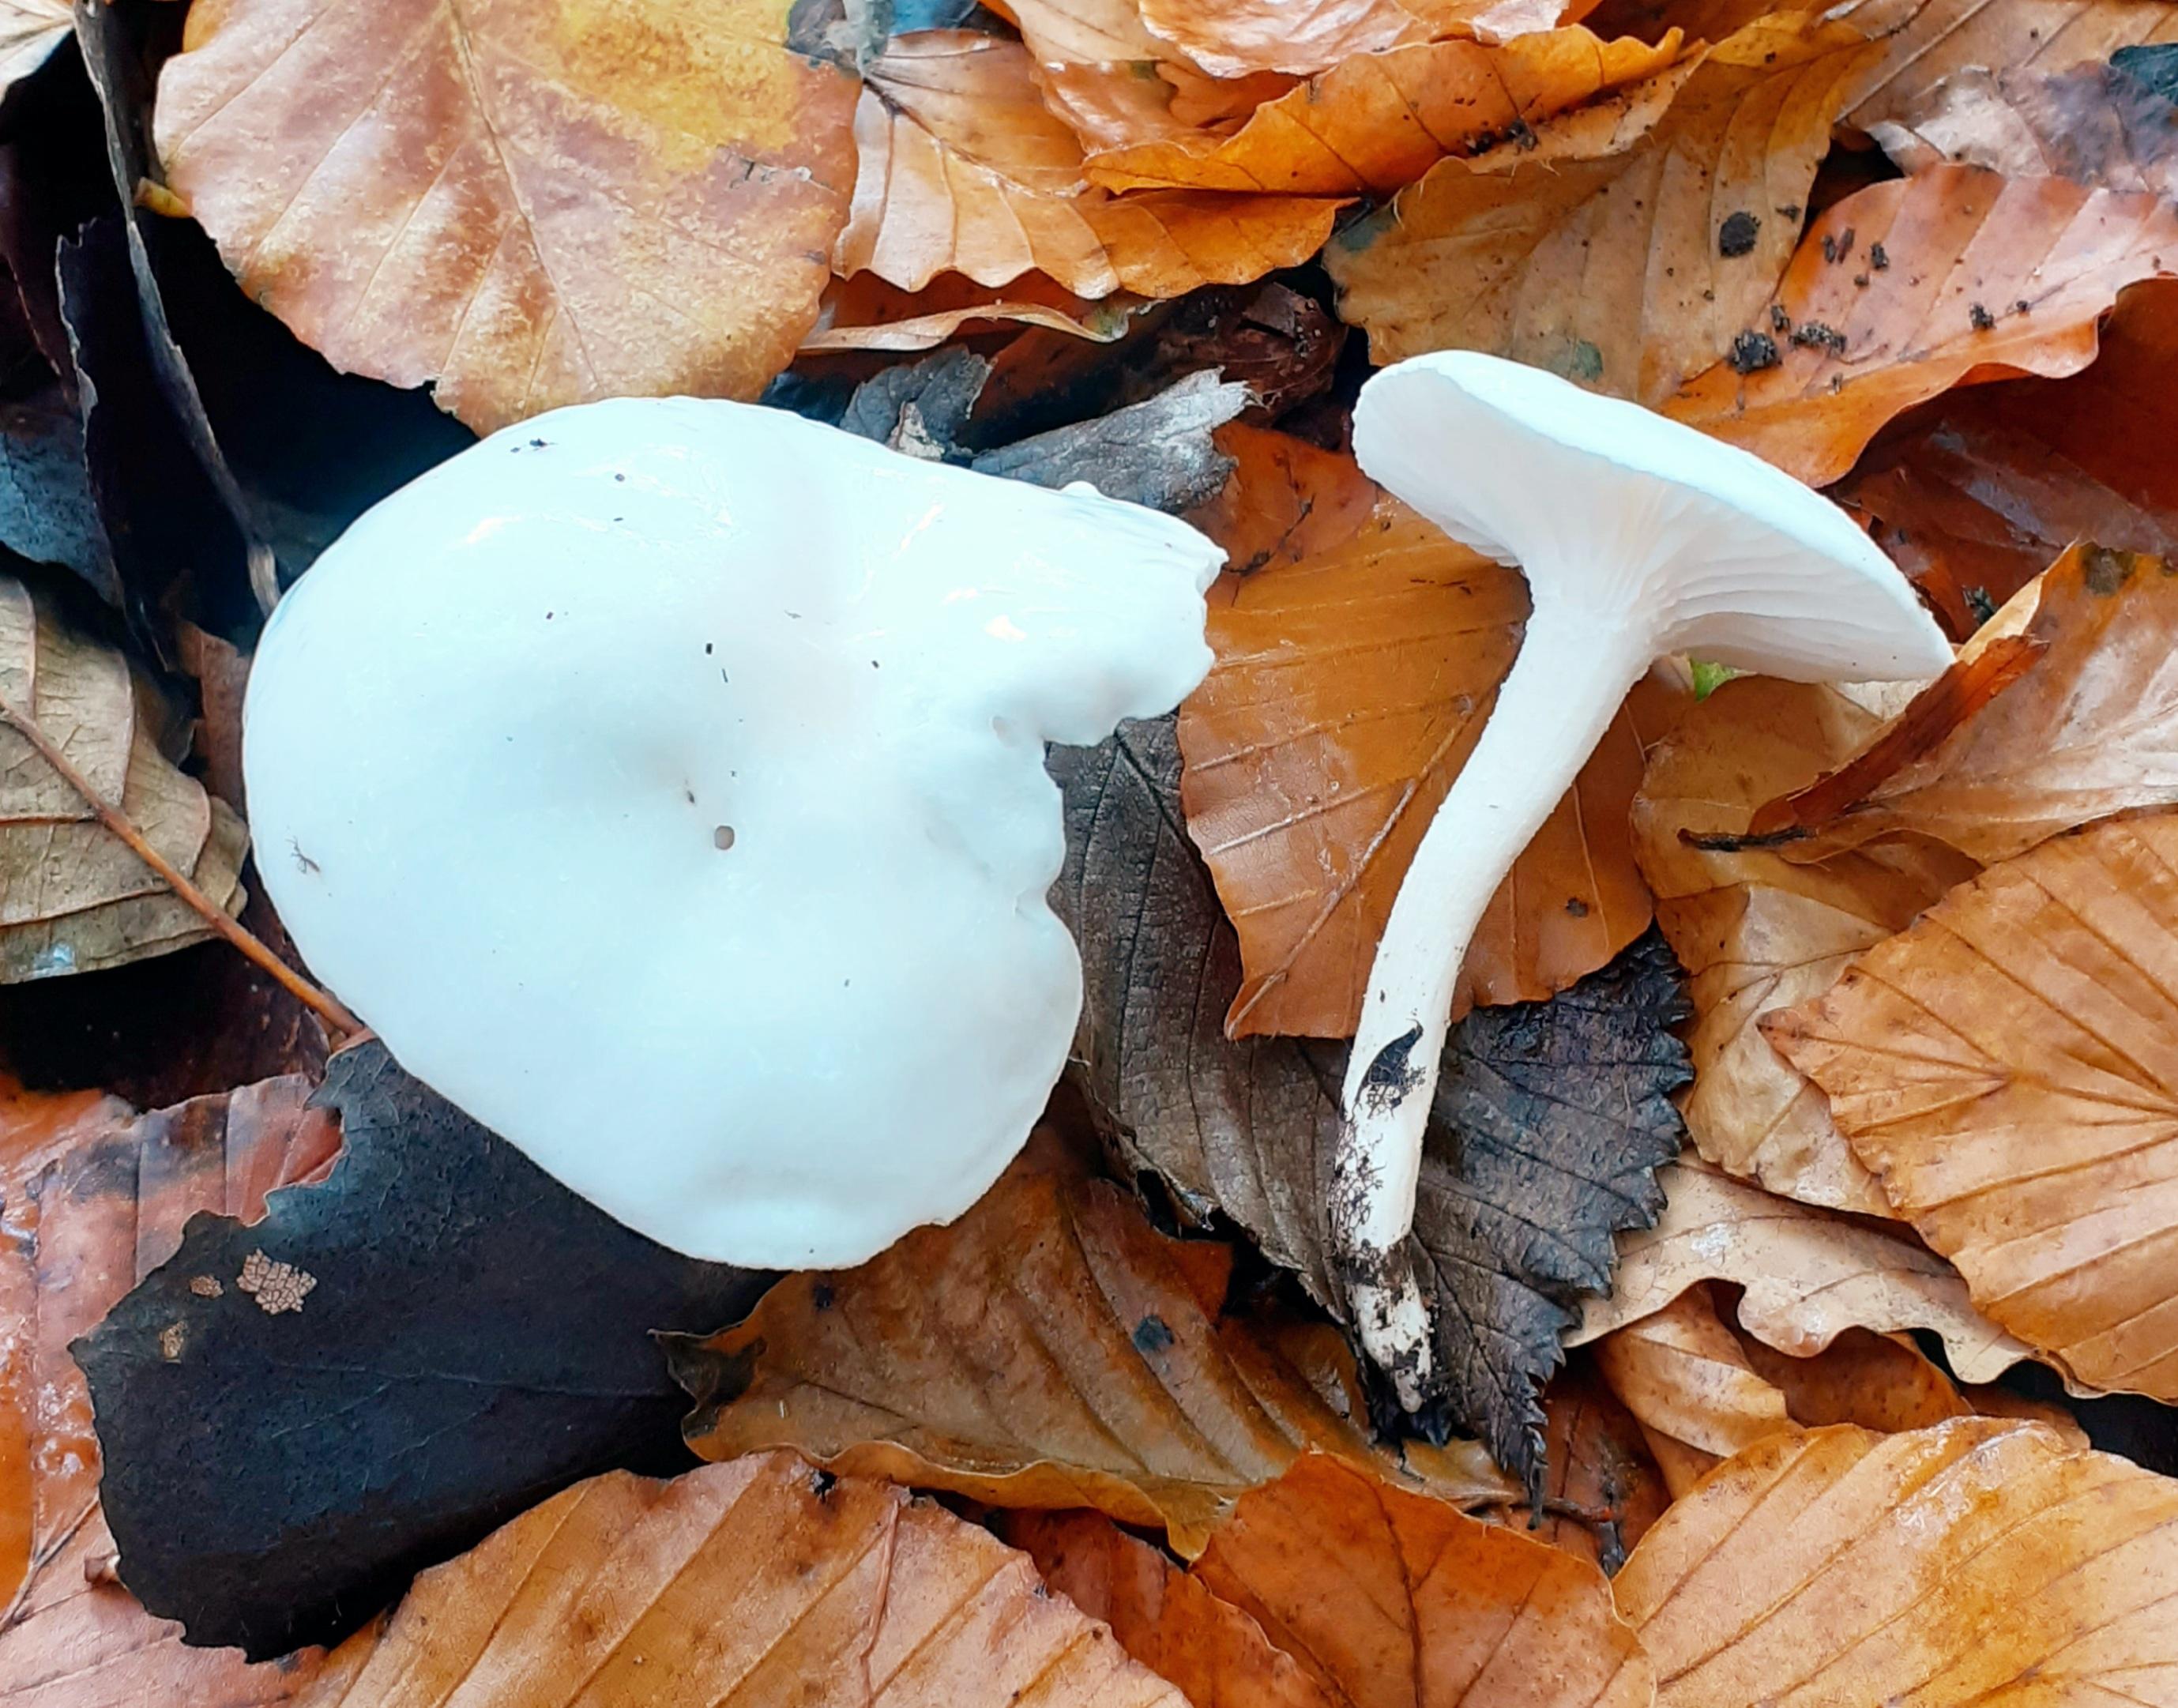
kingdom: Fungi
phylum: Basidiomycota
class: Agaricomycetes
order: Agaricales
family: Hygrophoraceae
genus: Hygrophorus
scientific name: Hygrophorus eburneus
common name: elfenbens-sneglehat
